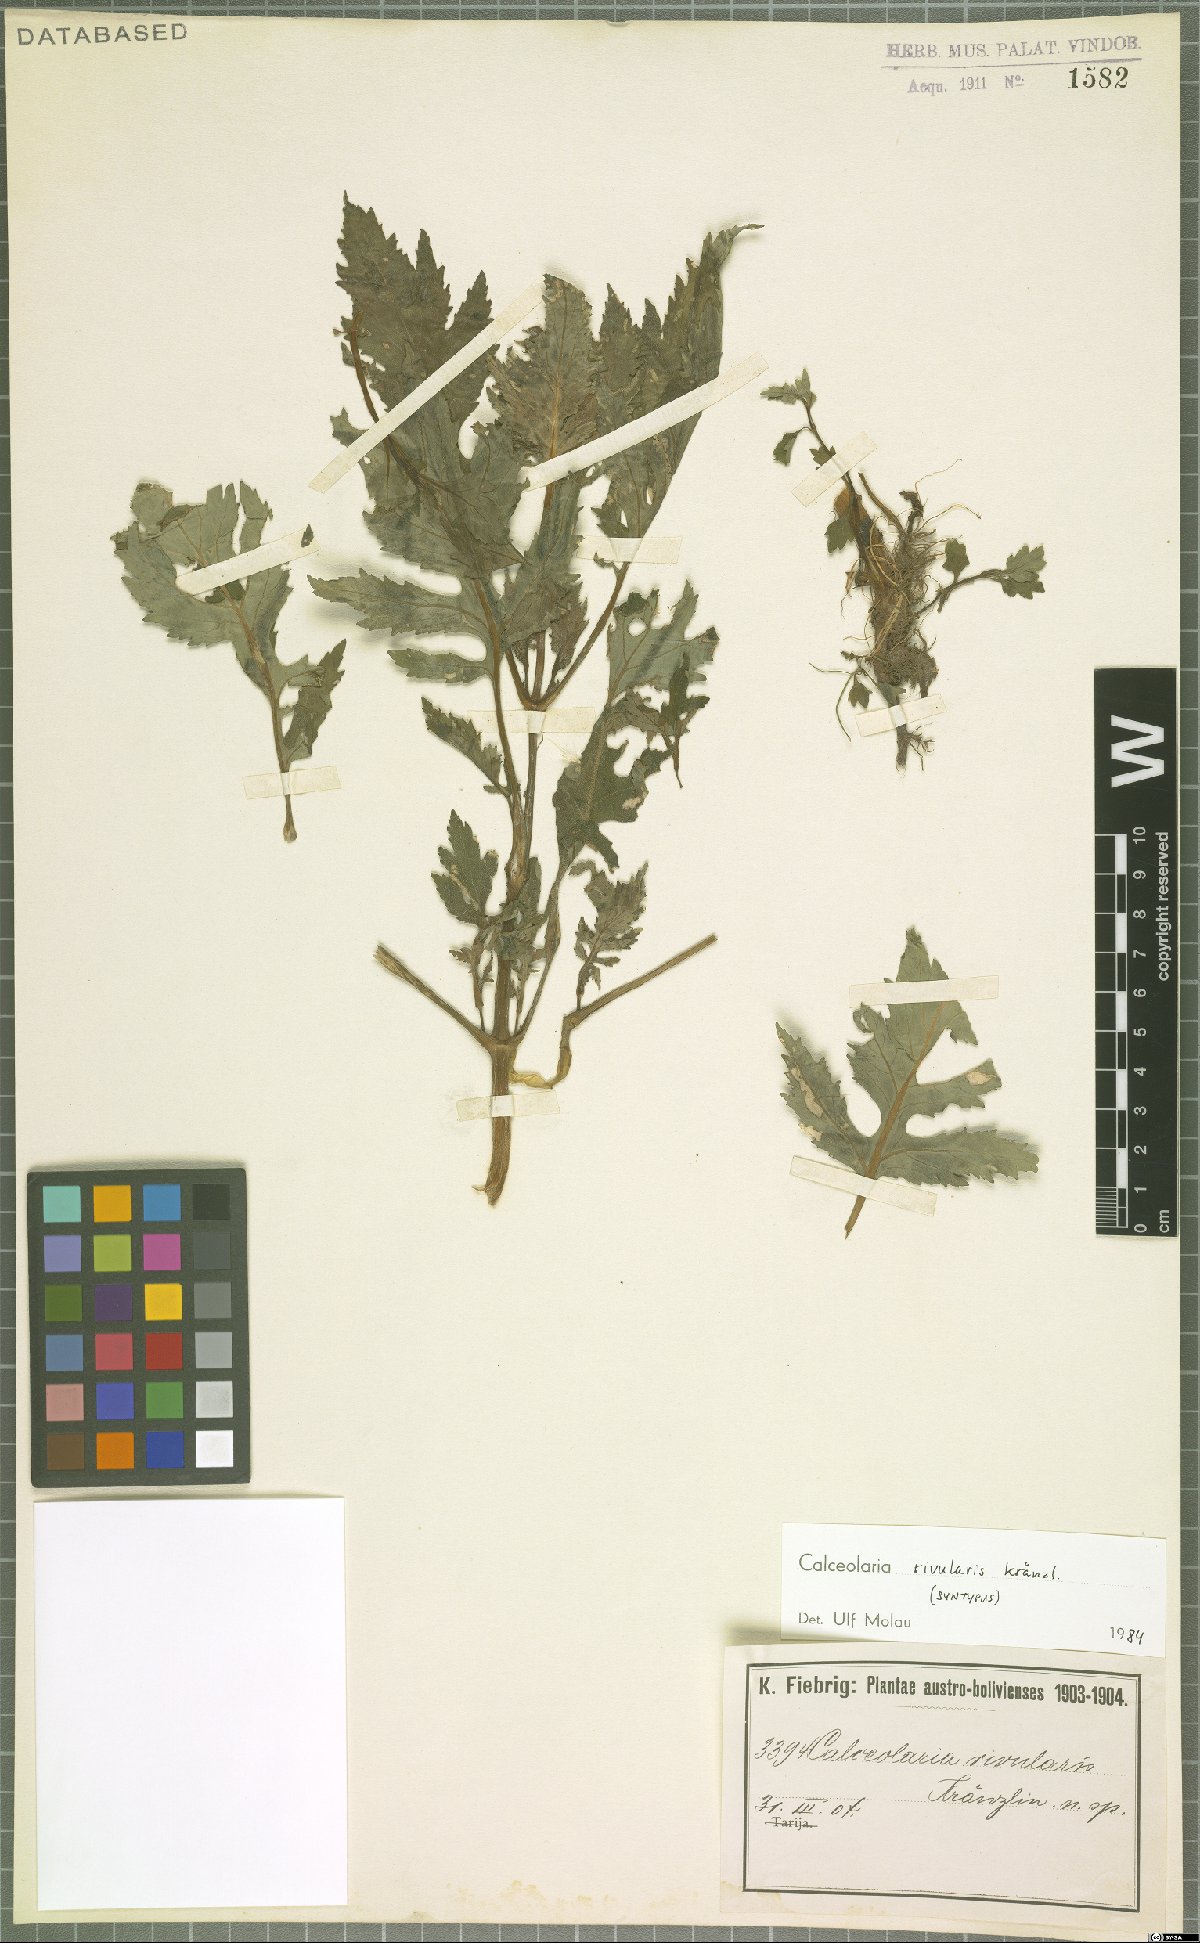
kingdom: Plantae
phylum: Tracheophyta
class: Magnoliopsida
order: Lamiales
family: Calceolariaceae
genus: Calceolaria
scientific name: Calceolaria rivularis
